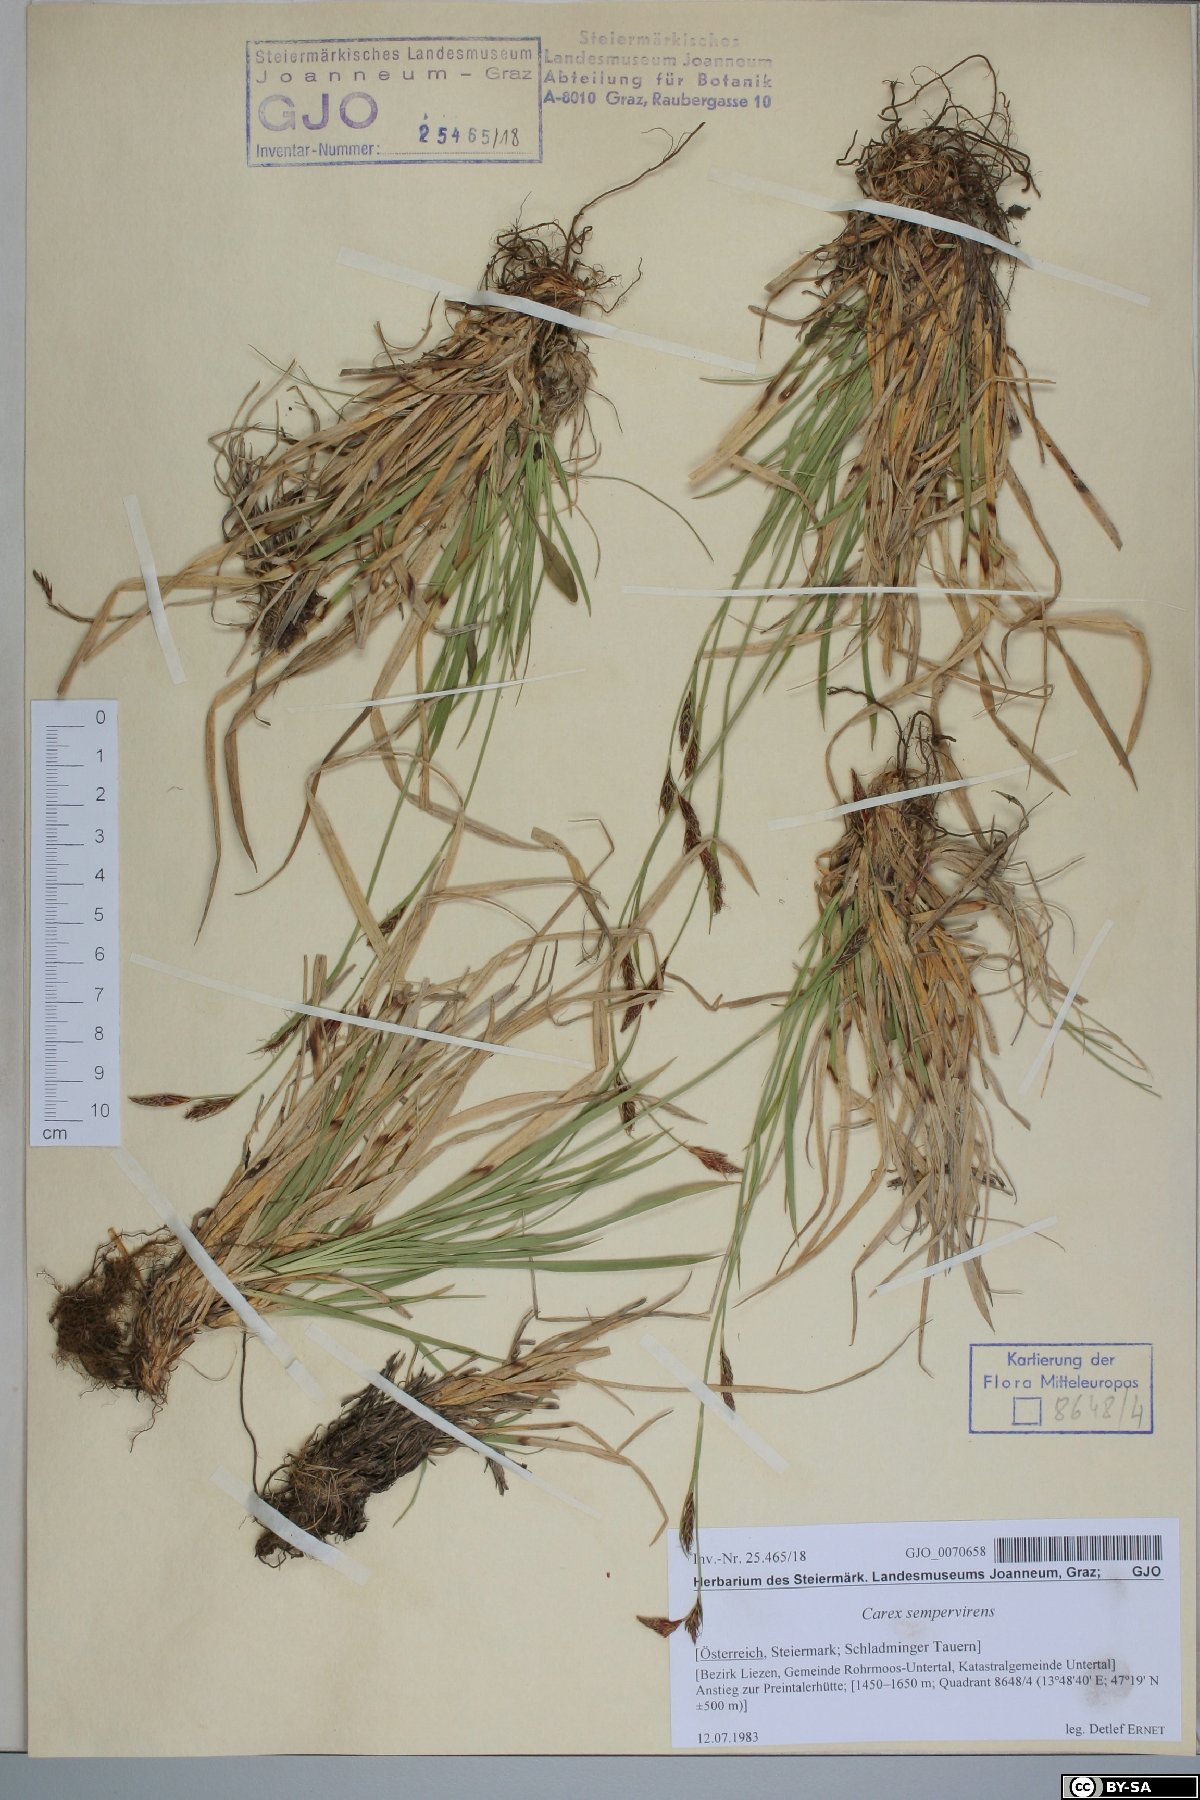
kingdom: Plantae
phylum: Tracheophyta
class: Liliopsida
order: Poales
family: Cyperaceae
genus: Carex
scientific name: Carex sempervirens
